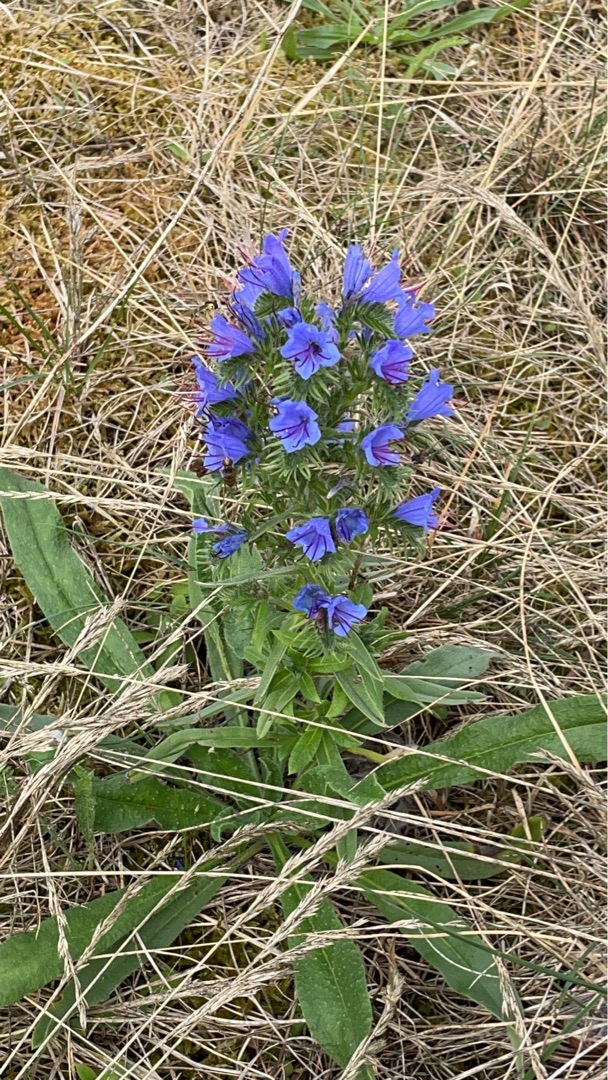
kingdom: Plantae
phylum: Tracheophyta
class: Magnoliopsida
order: Boraginales
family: Boraginaceae
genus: Echium
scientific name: Echium vulgare
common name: Slangehoved
